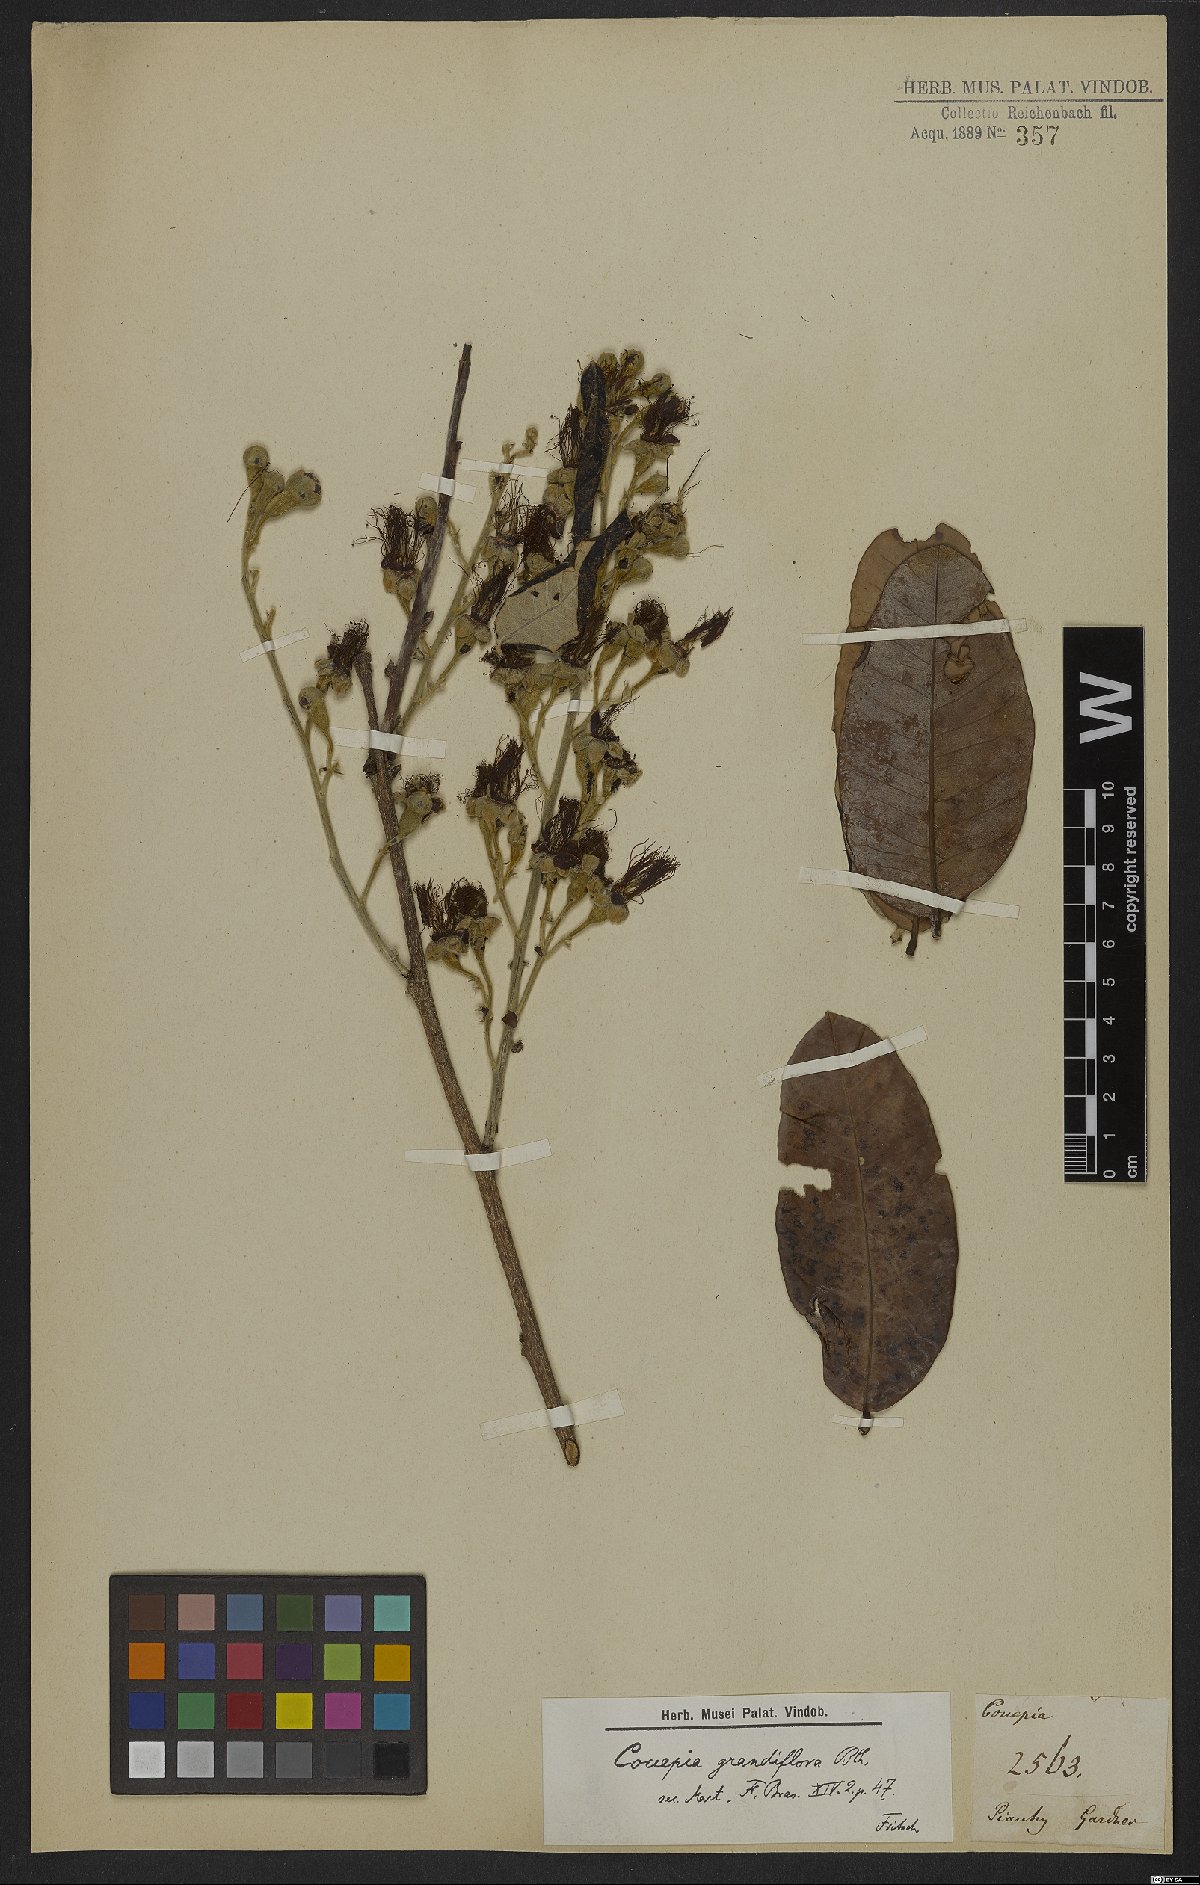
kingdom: Plantae
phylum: Tracheophyta
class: Magnoliopsida
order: Malpighiales
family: Chrysobalanaceae
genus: Couepia
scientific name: Couepia grandiflora
